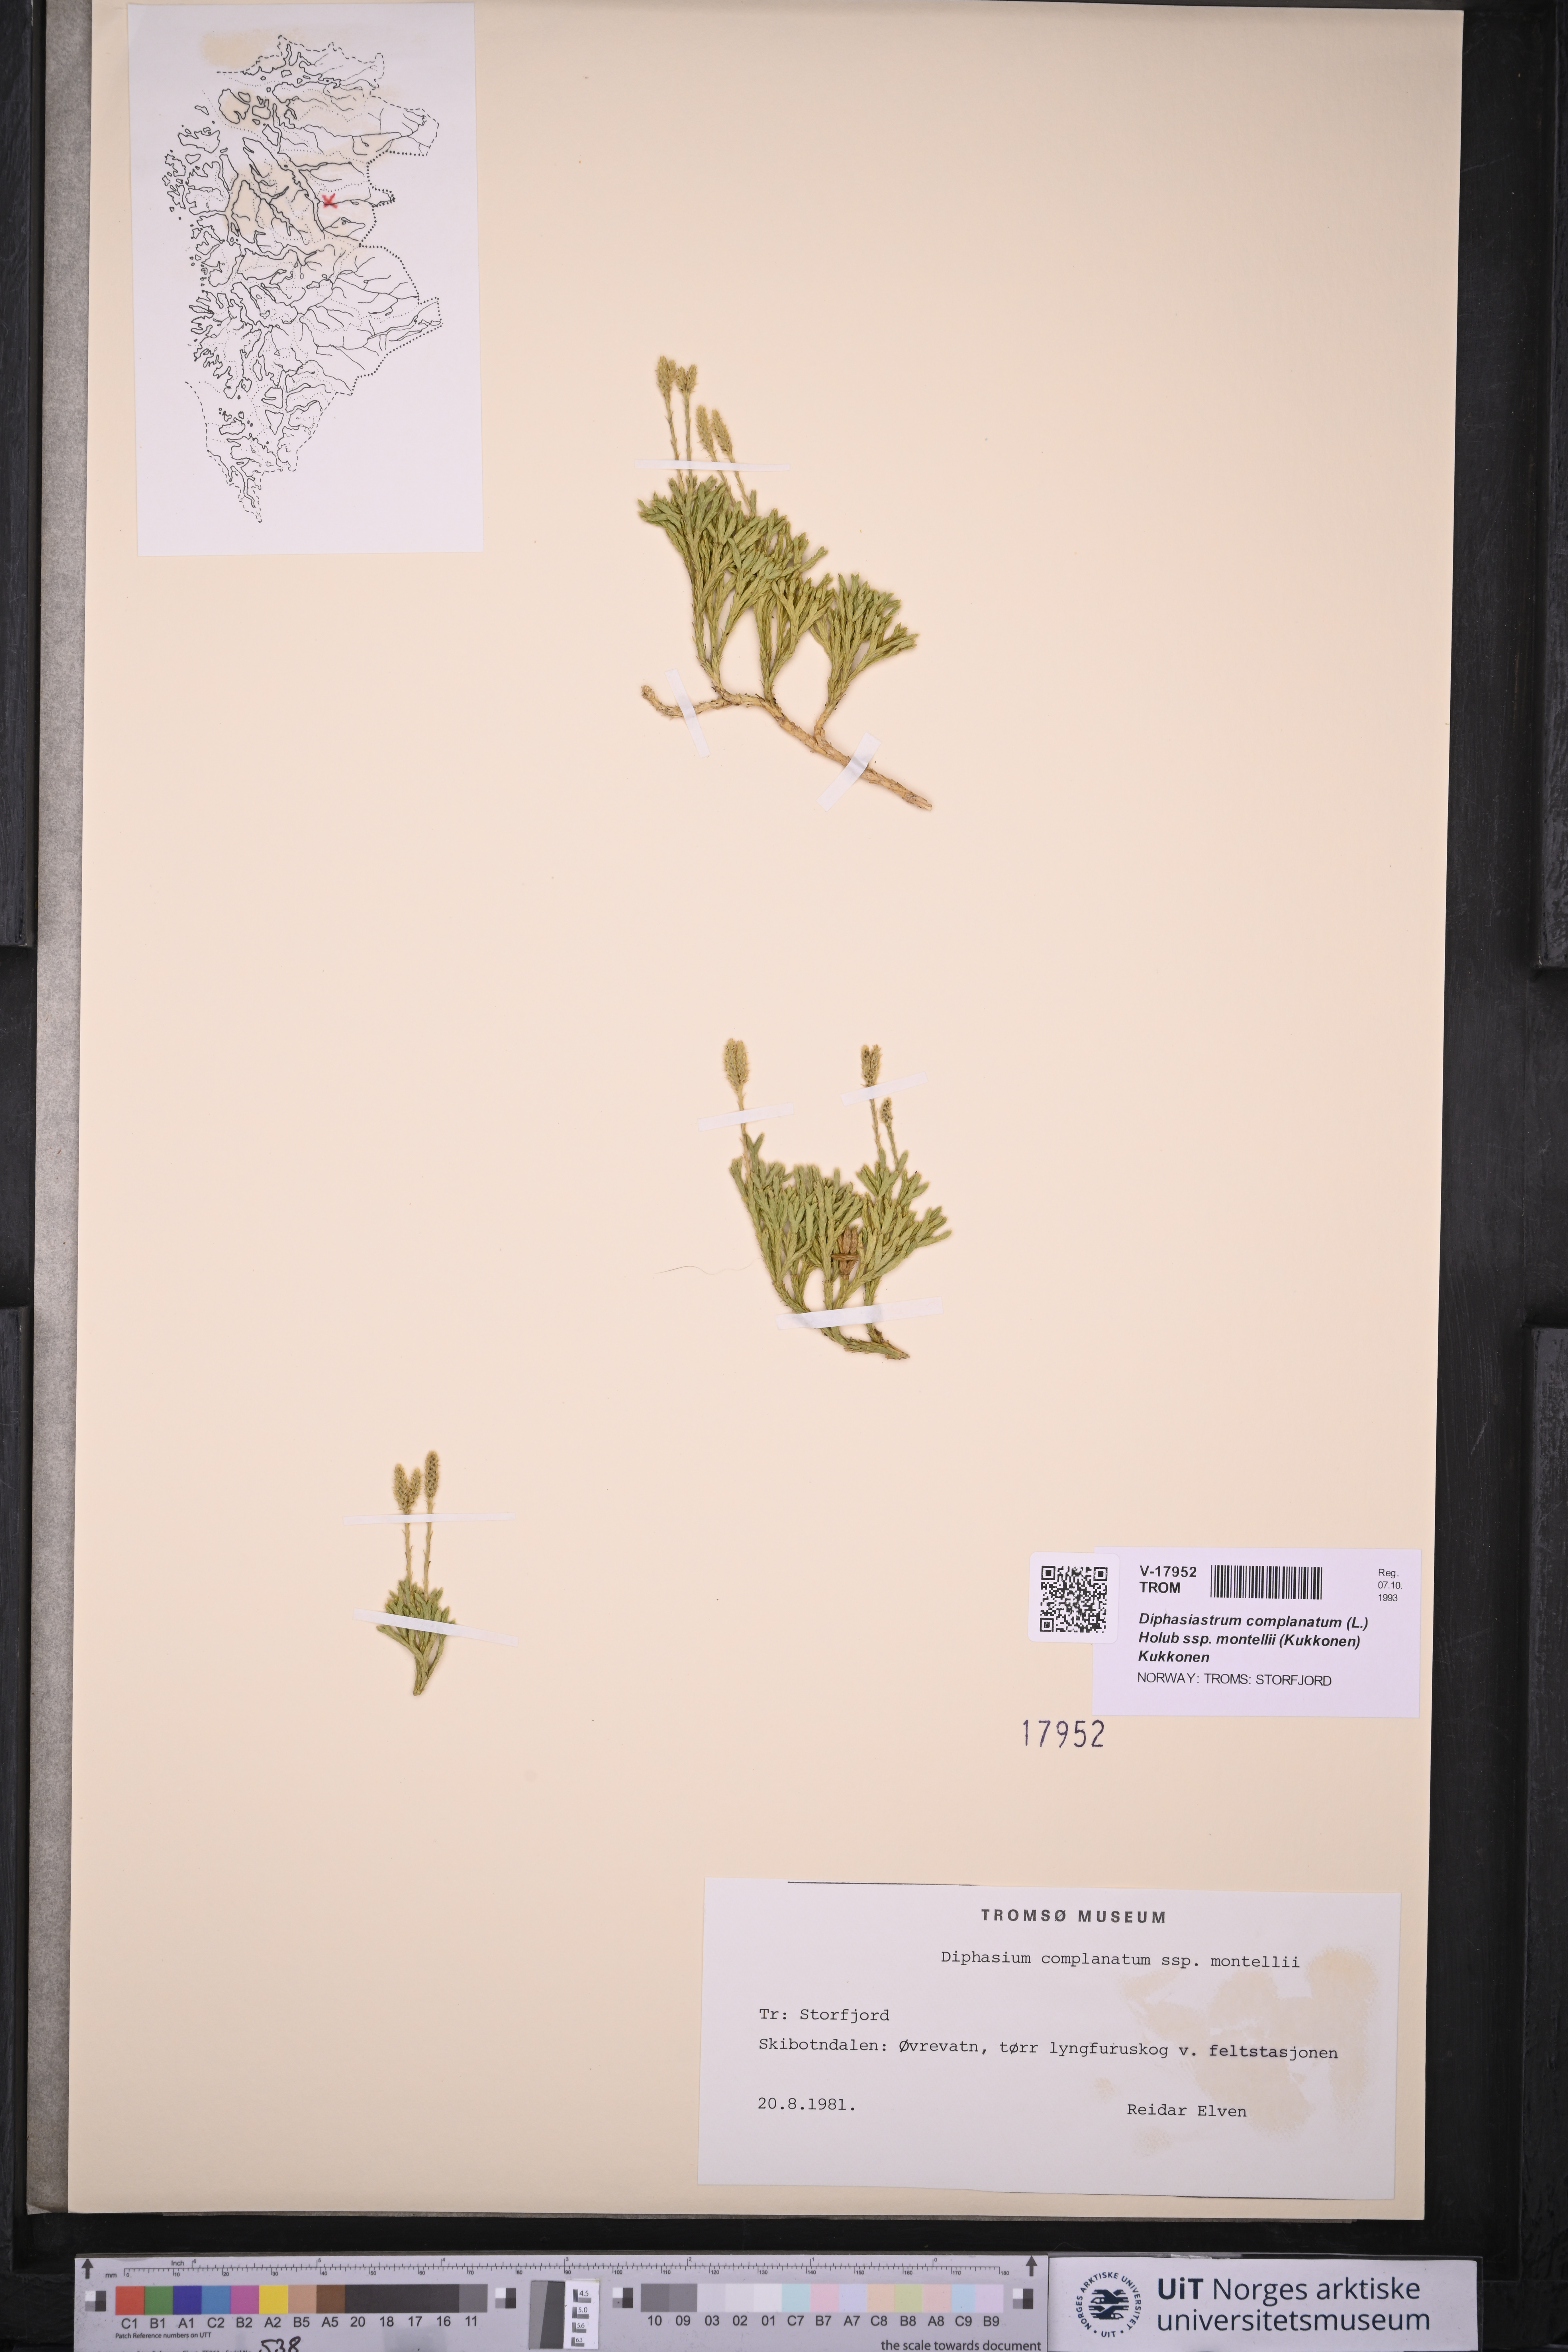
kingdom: Plantae
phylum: Tracheophyta
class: Lycopodiopsida
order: Lycopodiales
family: Lycopodiaceae
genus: Diphasiastrum
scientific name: Diphasiastrum complanatum
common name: Northern running-pine
